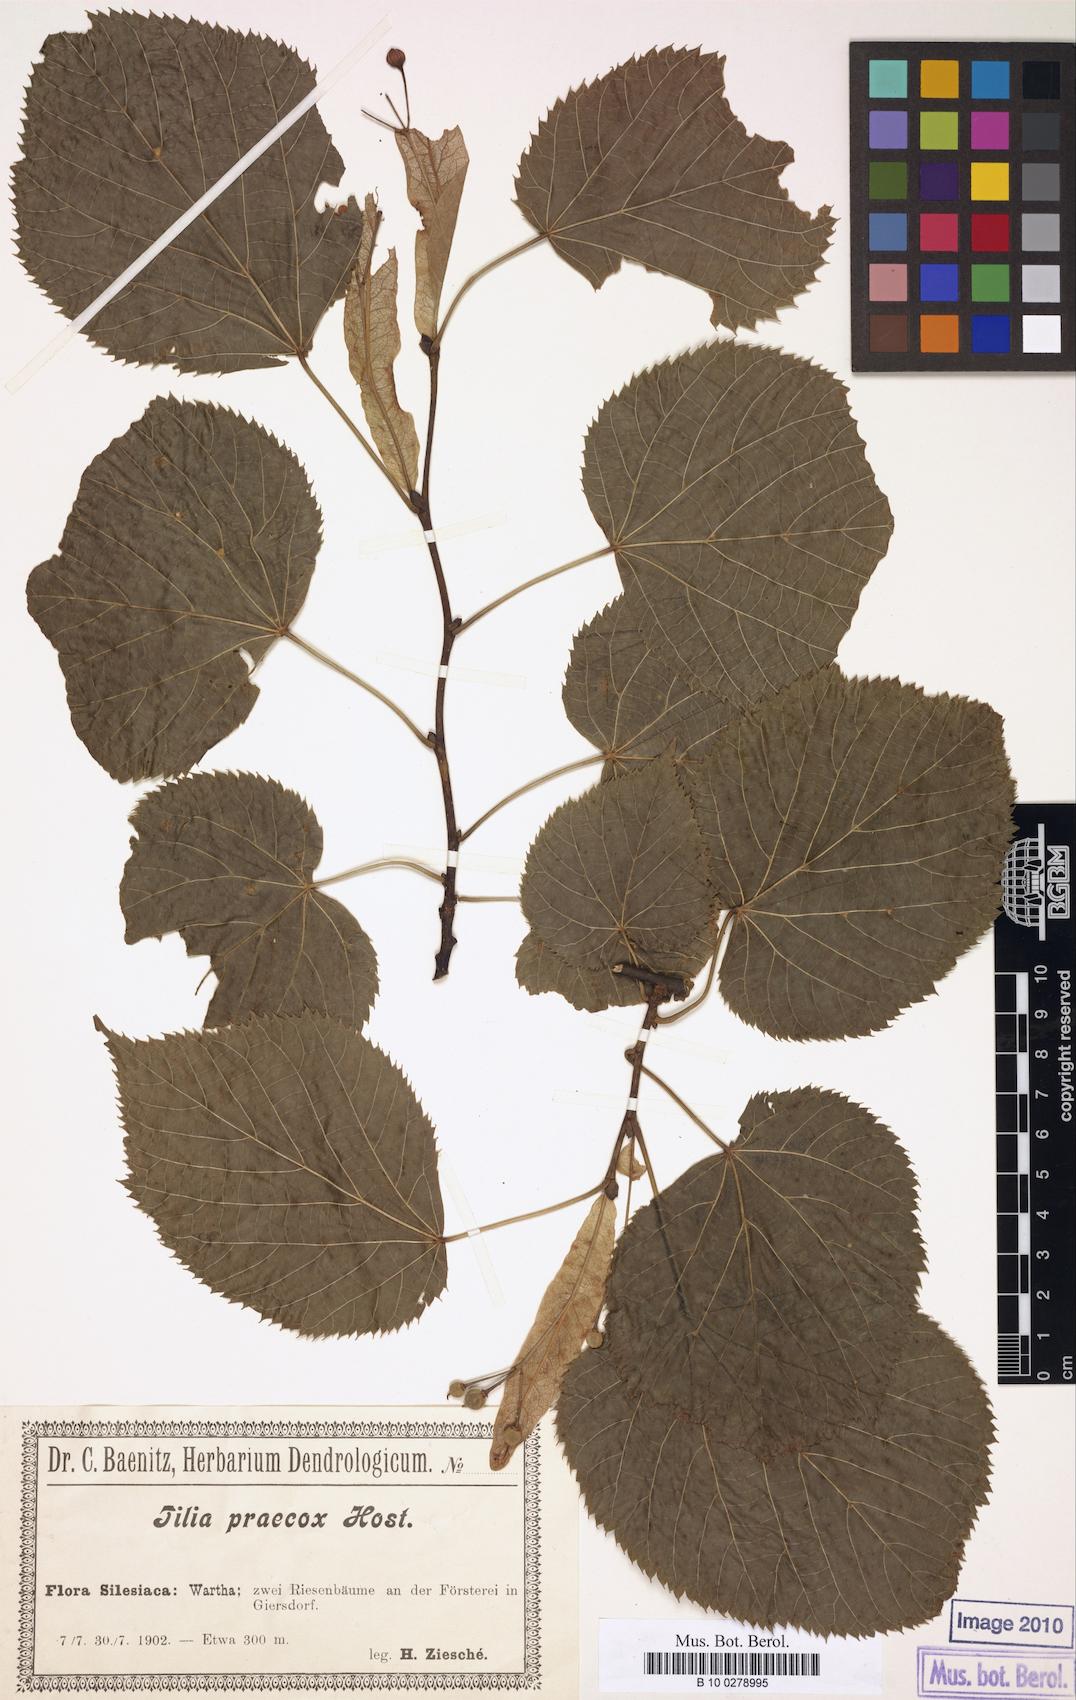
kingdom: Plantae
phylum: Tracheophyta
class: Magnoliopsida
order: Malvales
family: Malvaceae
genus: Tilia
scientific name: Tilia flaccida
